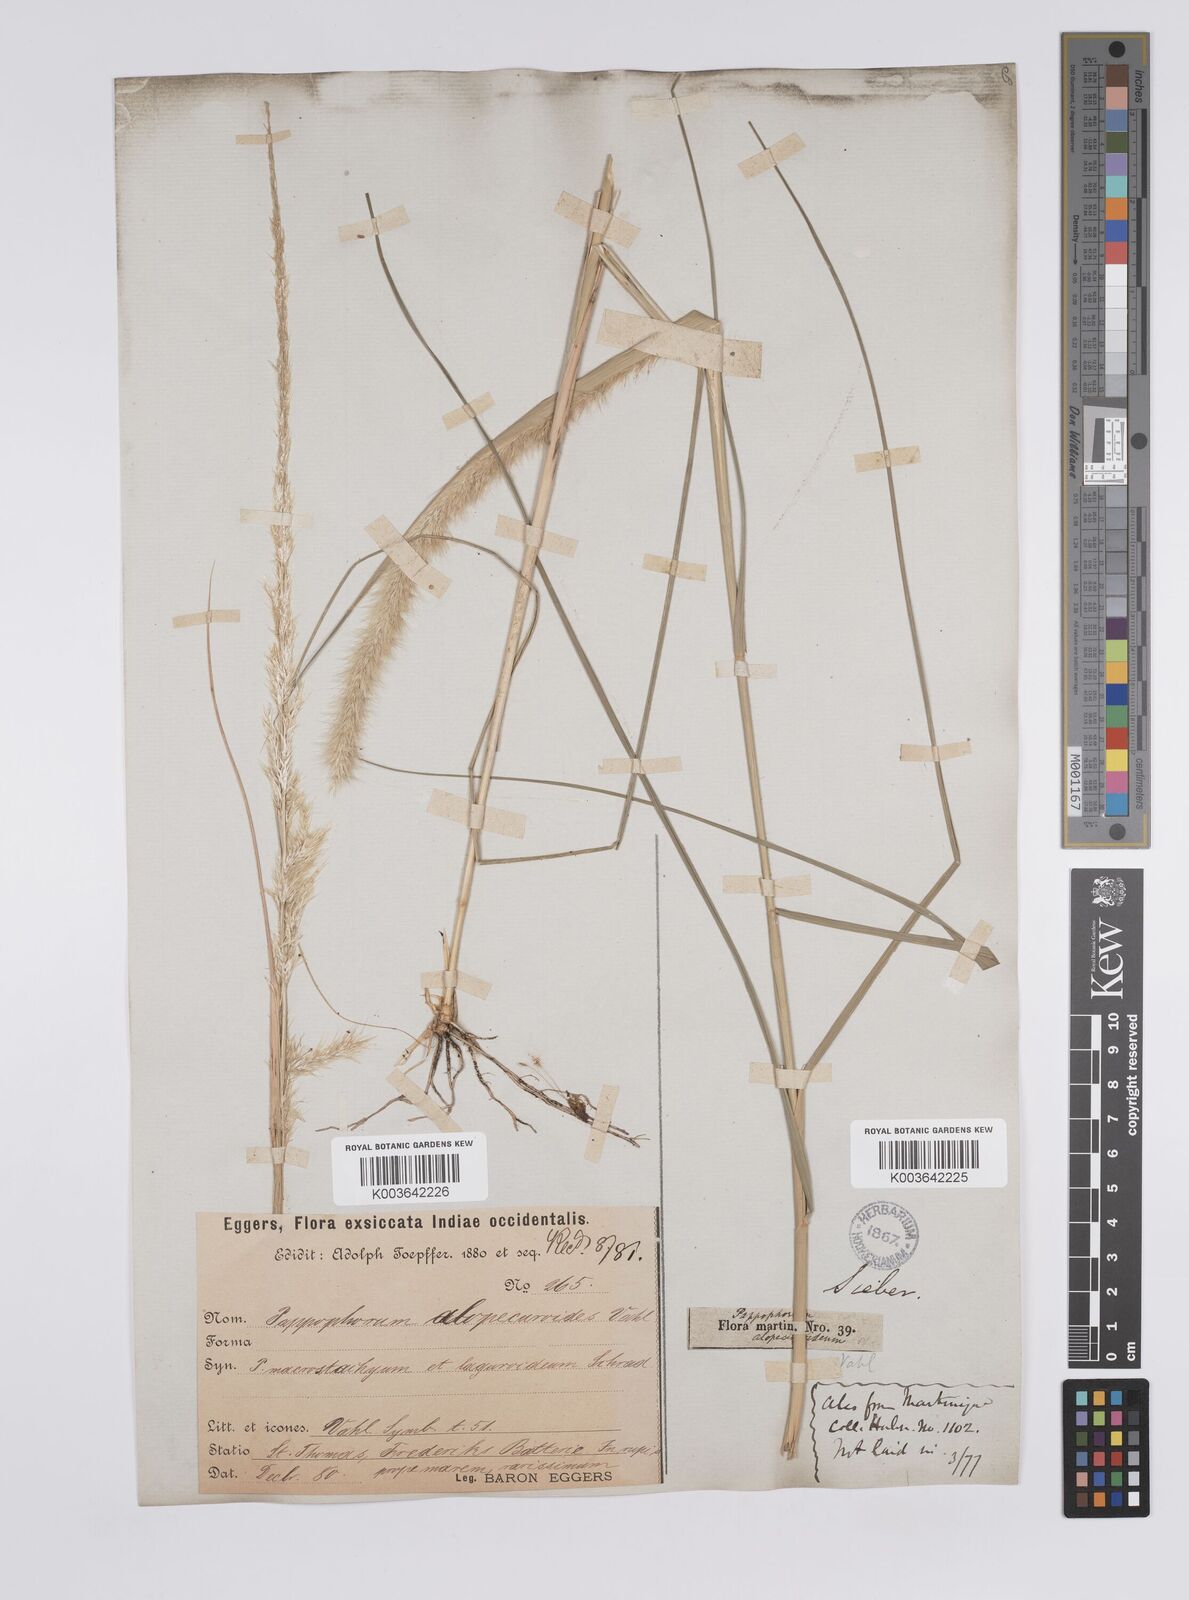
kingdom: Plantae
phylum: Tracheophyta
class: Liliopsida
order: Poales
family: Poaceae
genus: Pappophorum
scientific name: Pappophorum pappiferum
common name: Crabgrass
